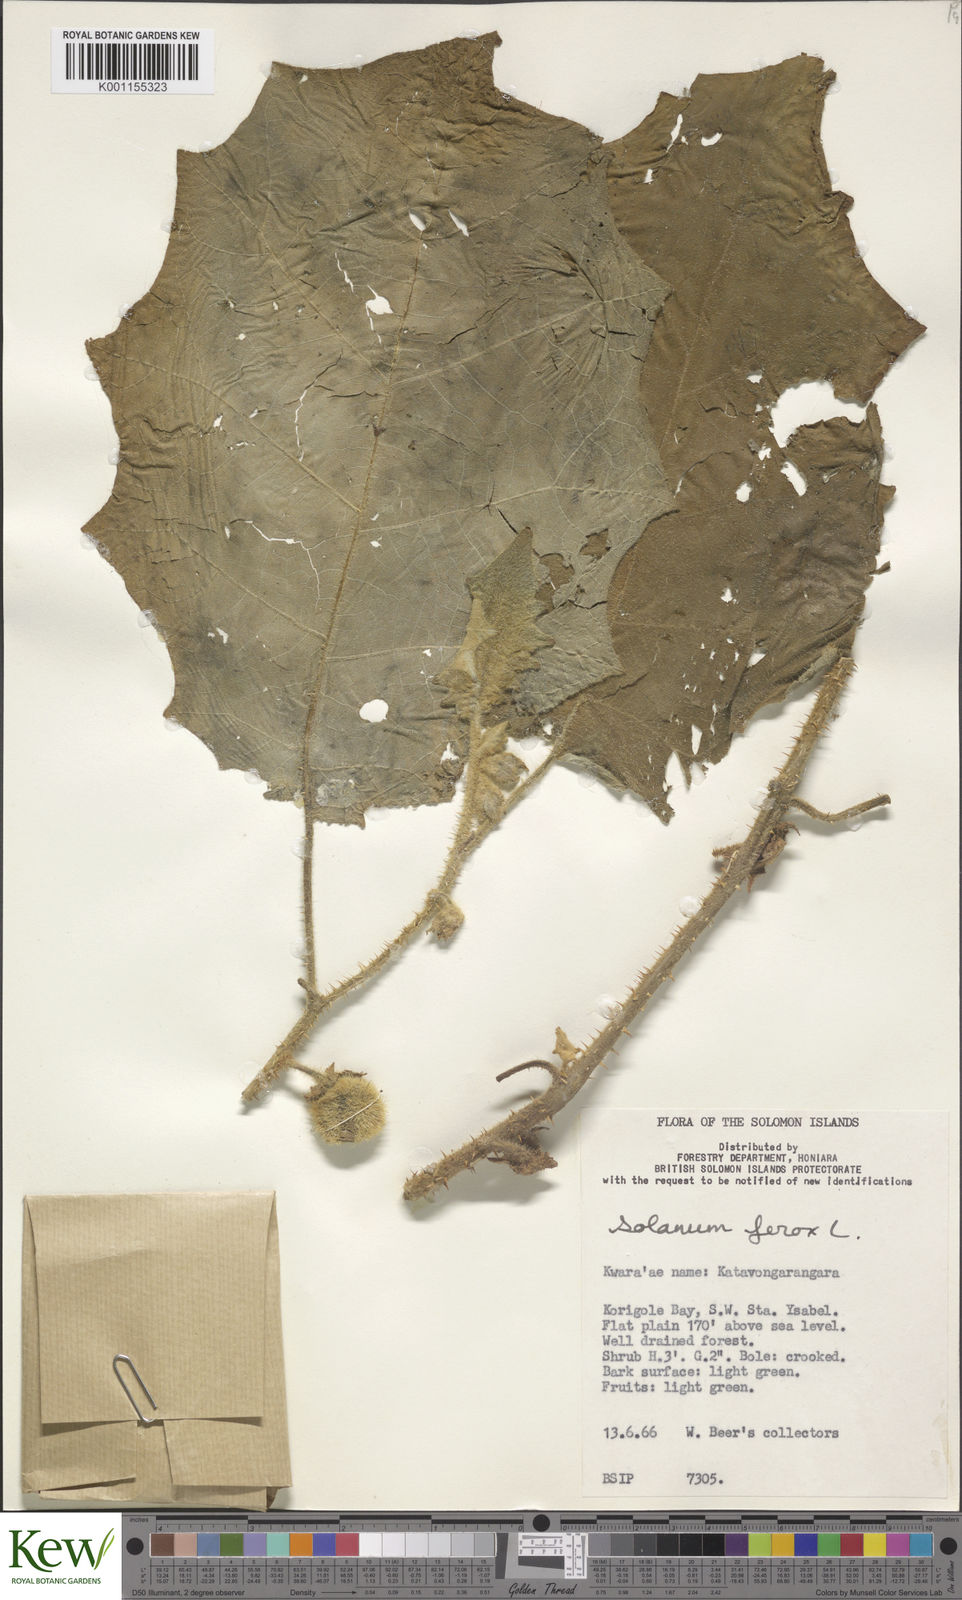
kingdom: Plantae
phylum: Tracheophyta
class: Magnoliopsida
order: Solanales
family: Solanaceae
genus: Solanum
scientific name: Solanum
